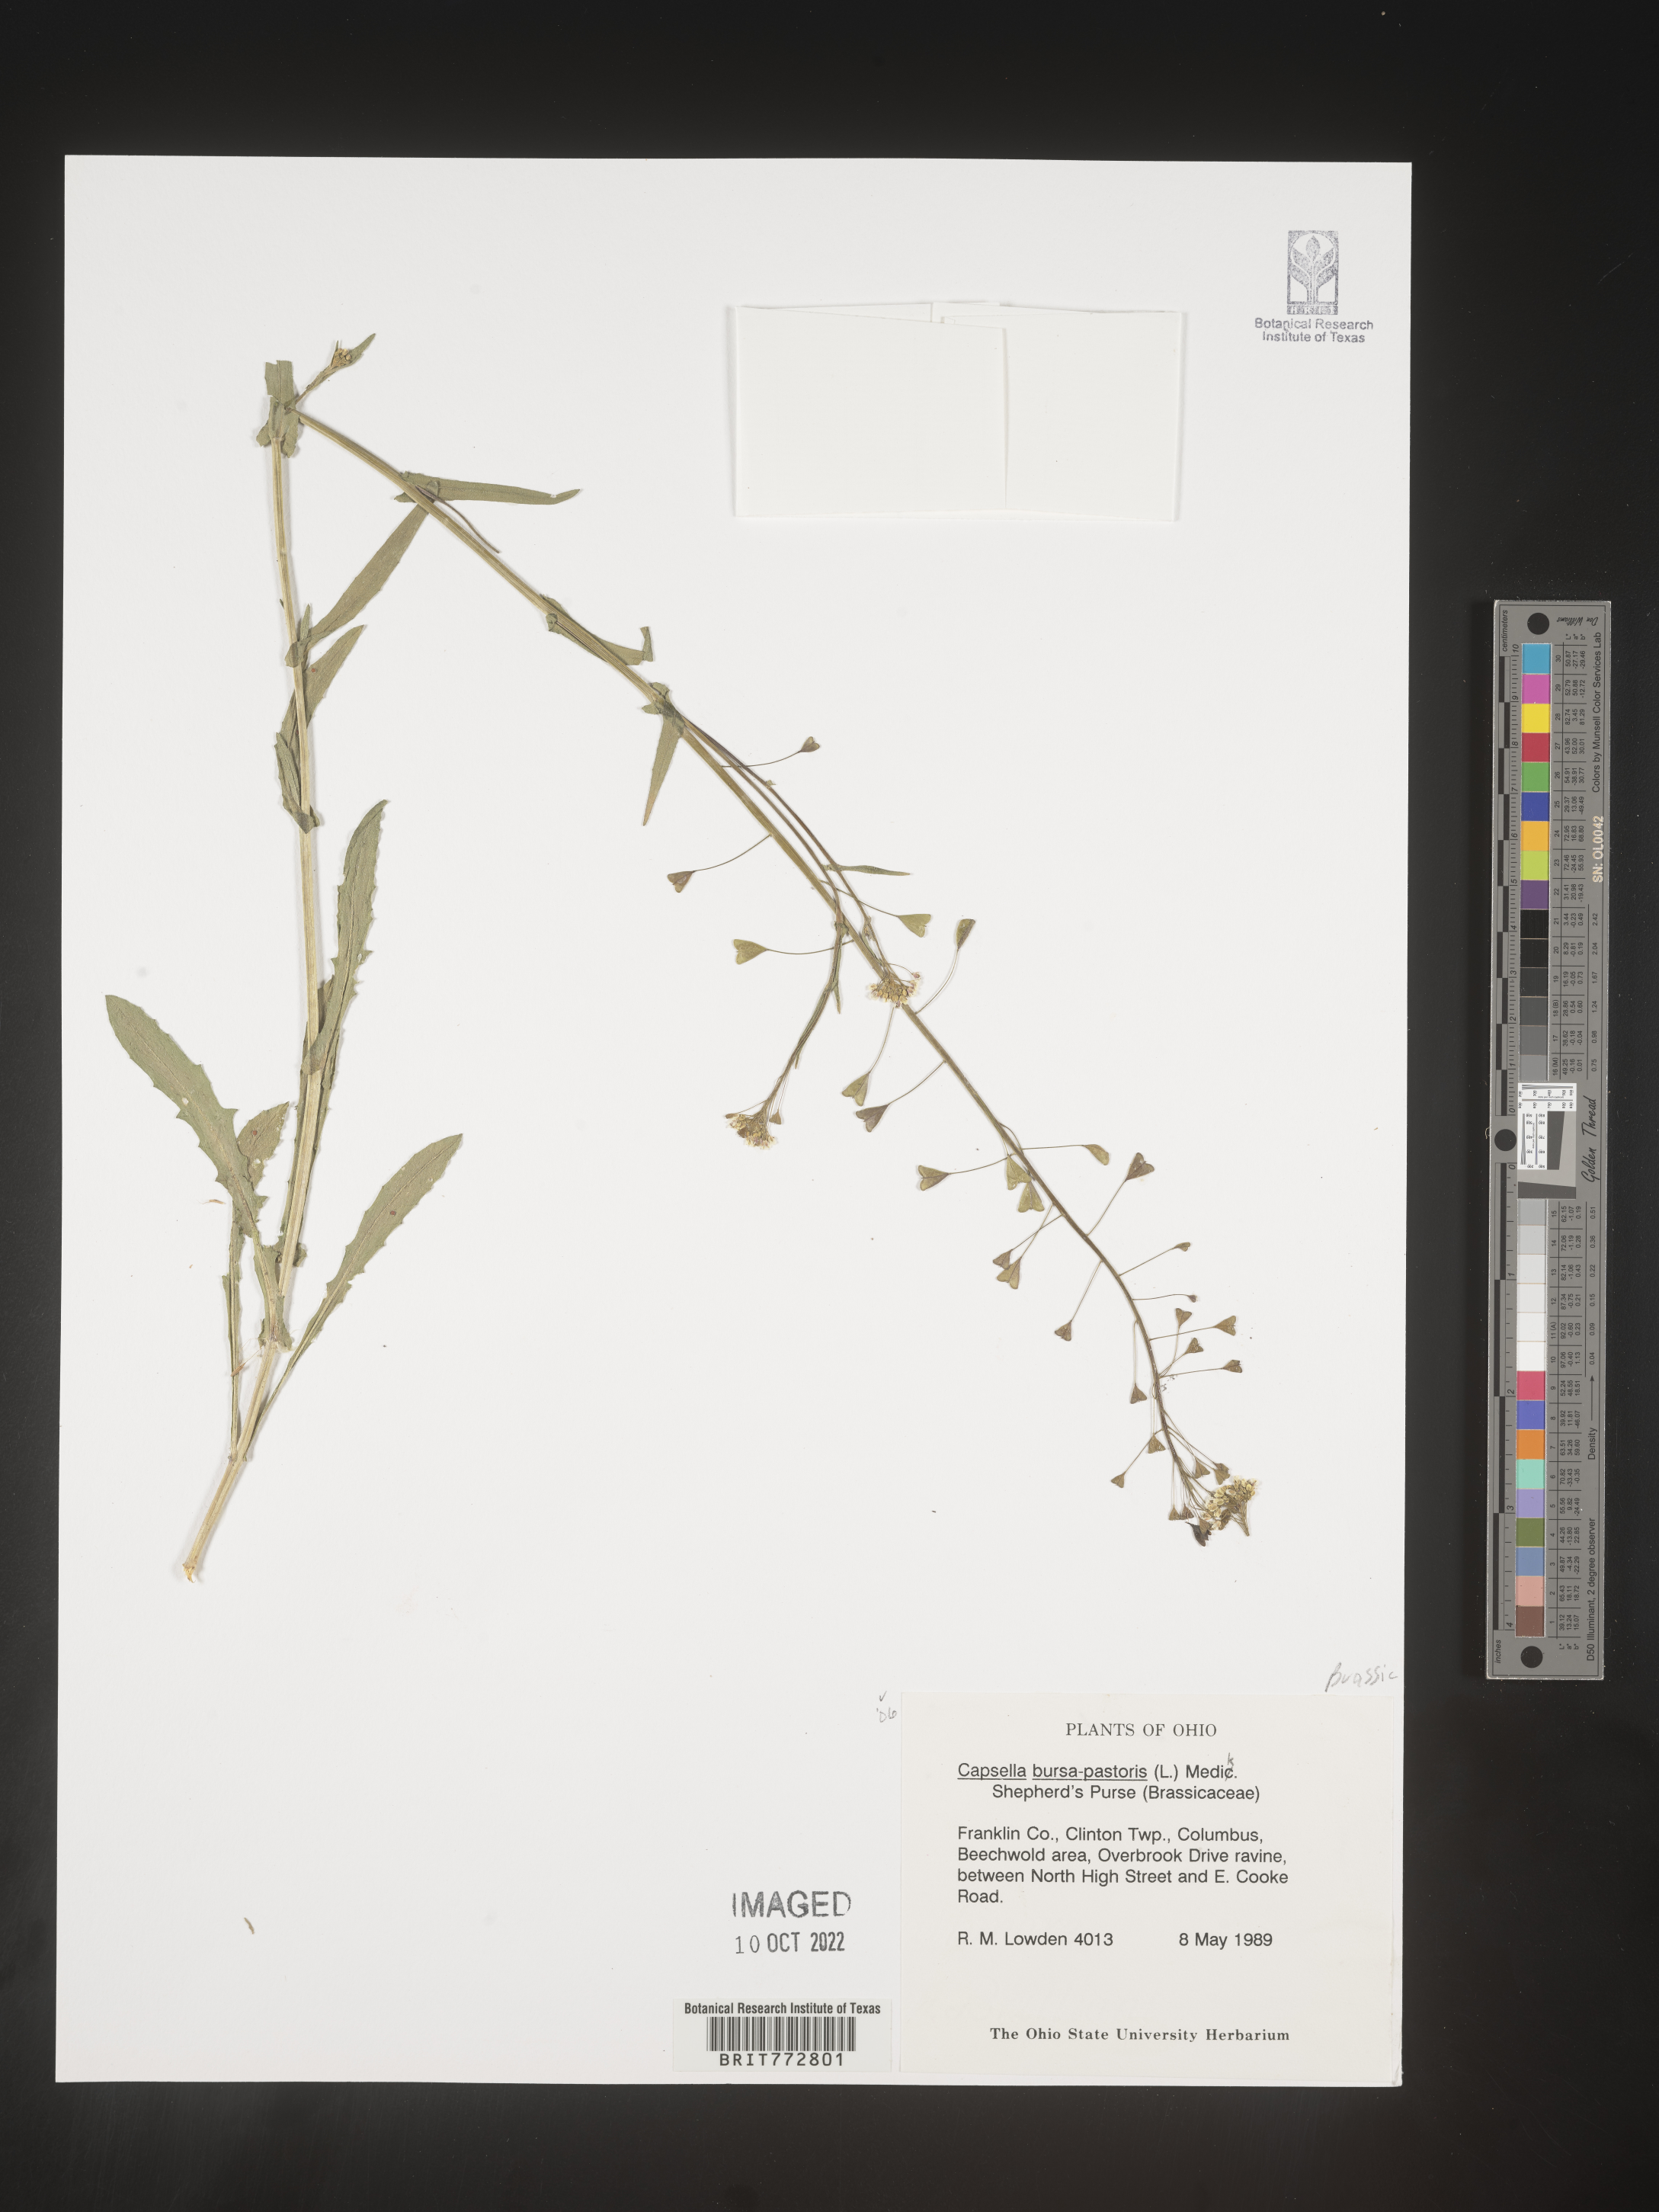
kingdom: Plantae
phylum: Tracheophyta
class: Magnoliopsida
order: Brassicales
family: Brassicaceae
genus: Capsella
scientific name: Capsella bursa-pastoris
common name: Shepherd's purse
